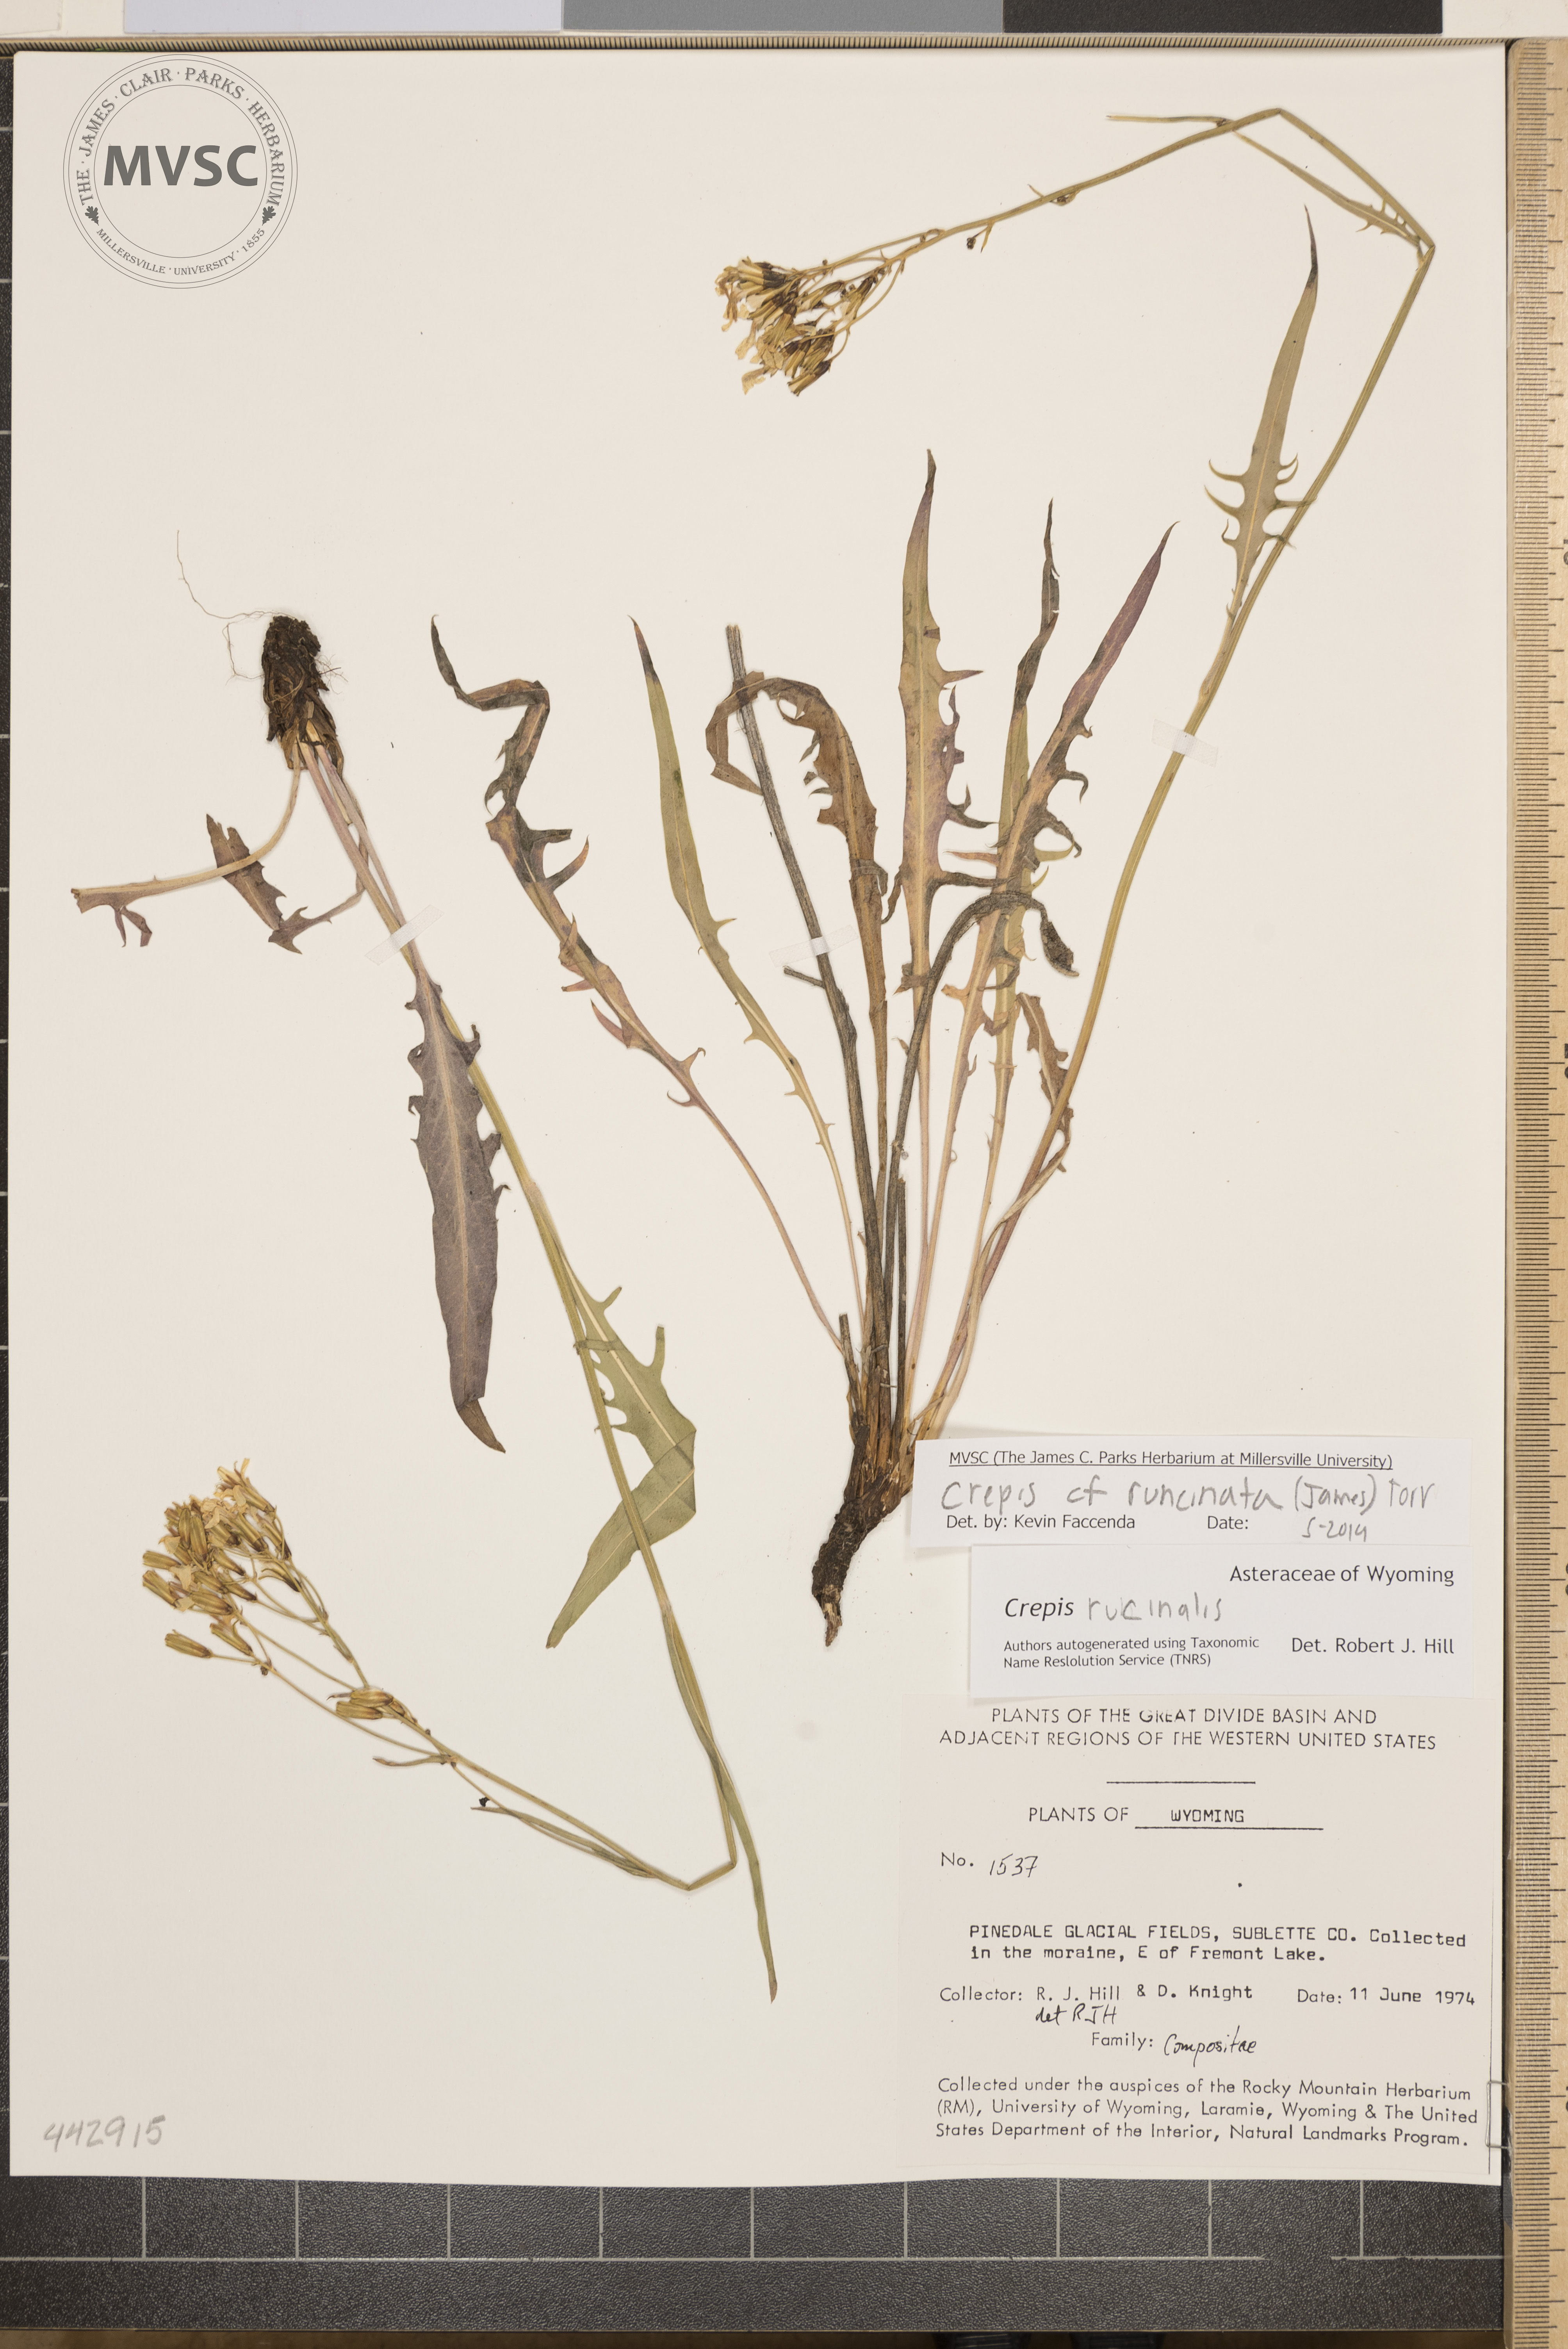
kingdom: Plantae
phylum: Tracheophyta
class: Magnoliopsida
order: Asterales
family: Asteraceae
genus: Crepis
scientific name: Crepis runcinata
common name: Dandelion hawksbeard
